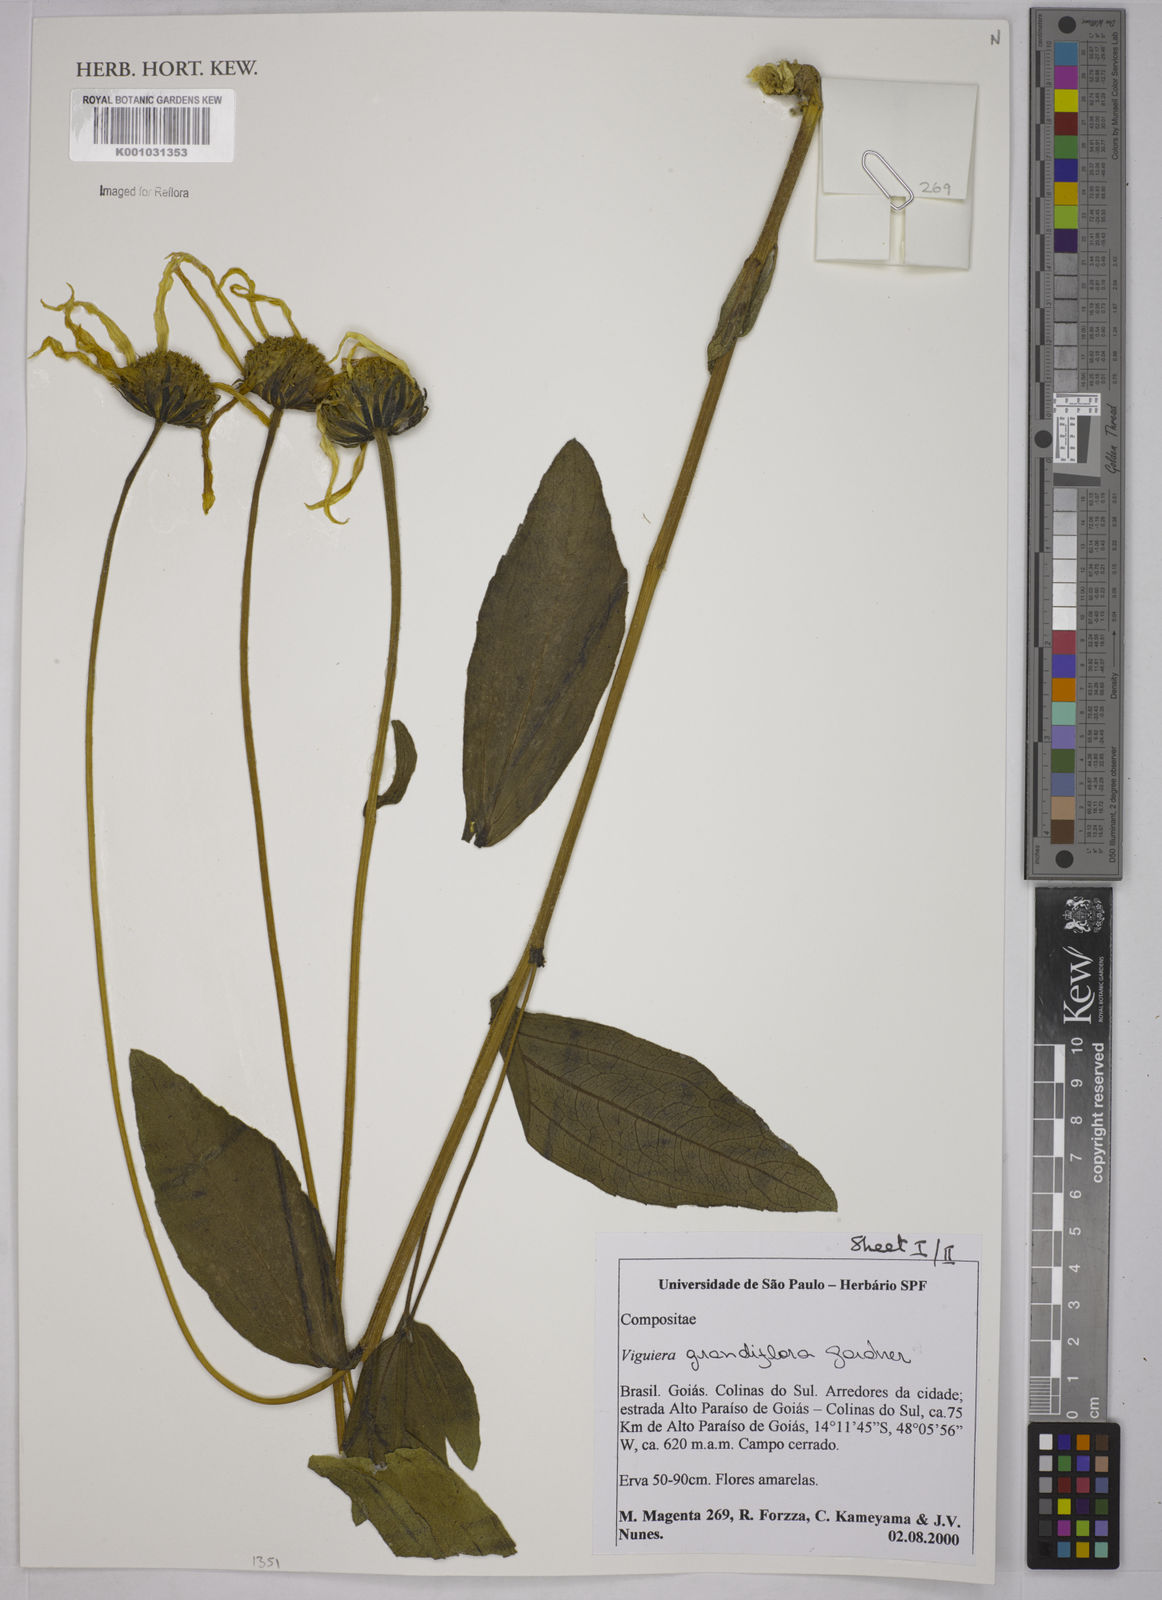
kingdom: Plantae
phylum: Tracheophyta
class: Magnoliopsida
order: Asterales
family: Asteraceae
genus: Aldama
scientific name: Aldama grandiflora
